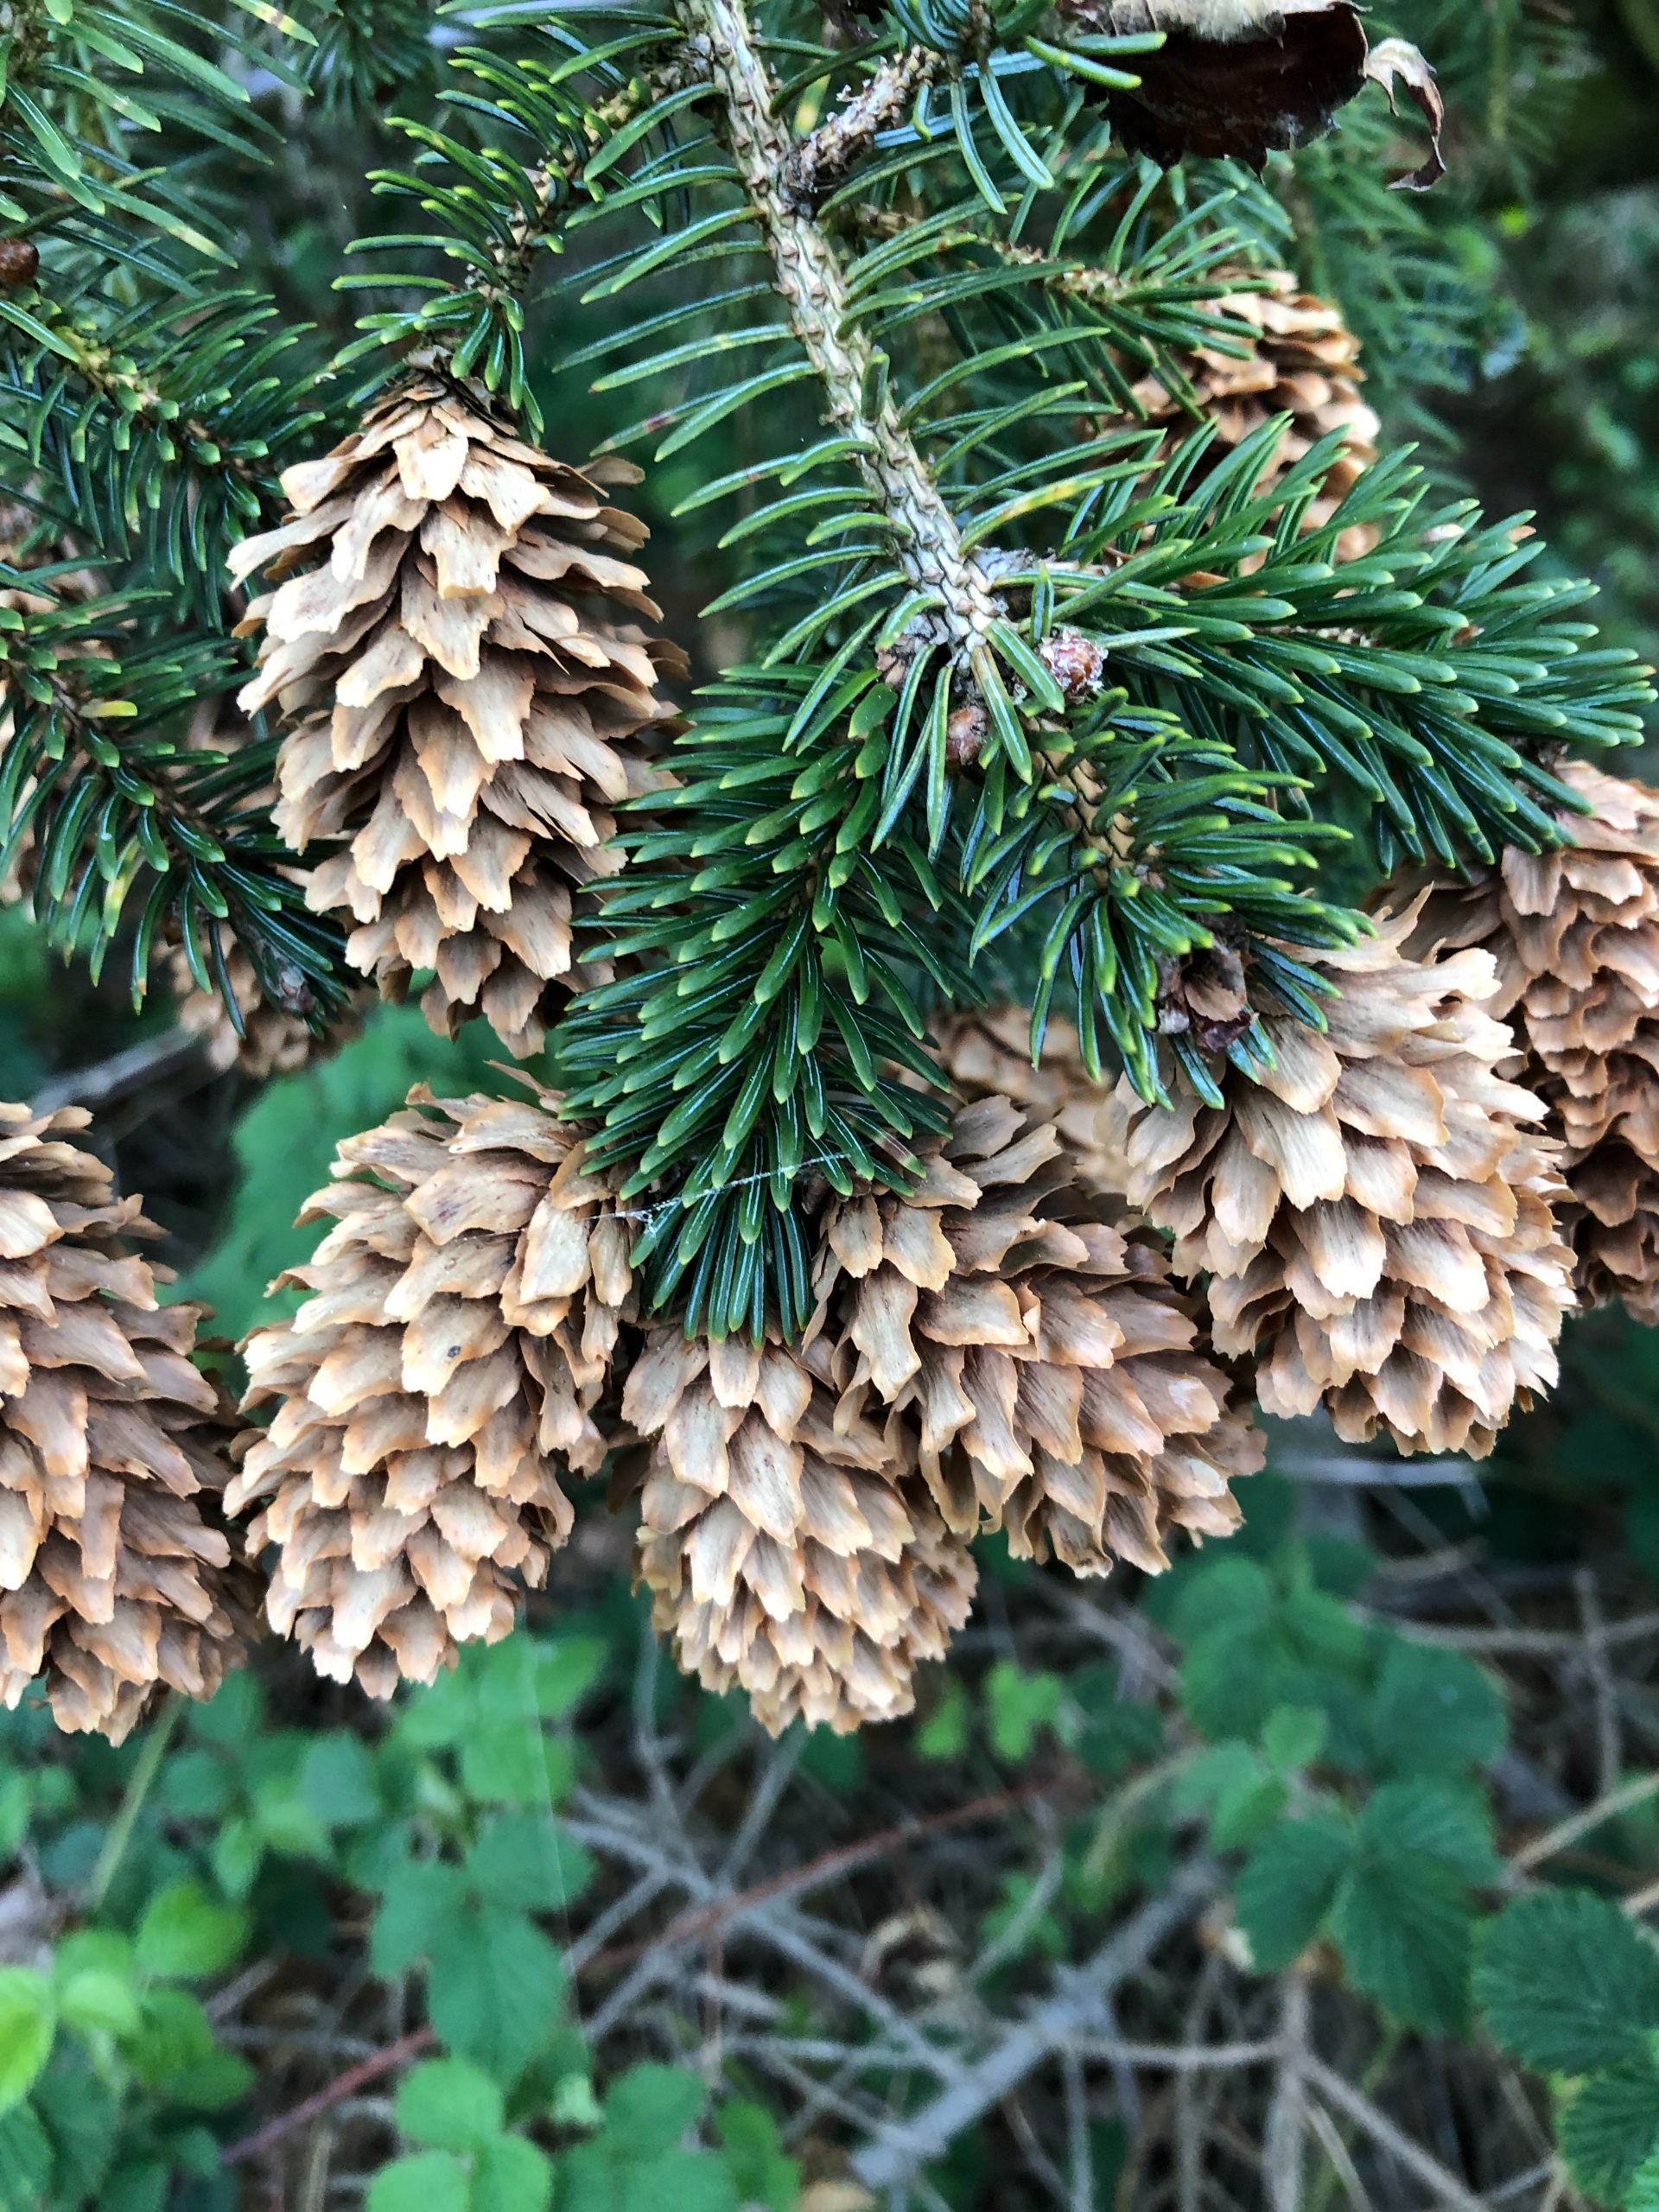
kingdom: Plantae
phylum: Tracheophyta
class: Pinopsida
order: Pinales
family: Pinaceae
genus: Picea
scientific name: Picea sitchensis
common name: Sitka-gran
